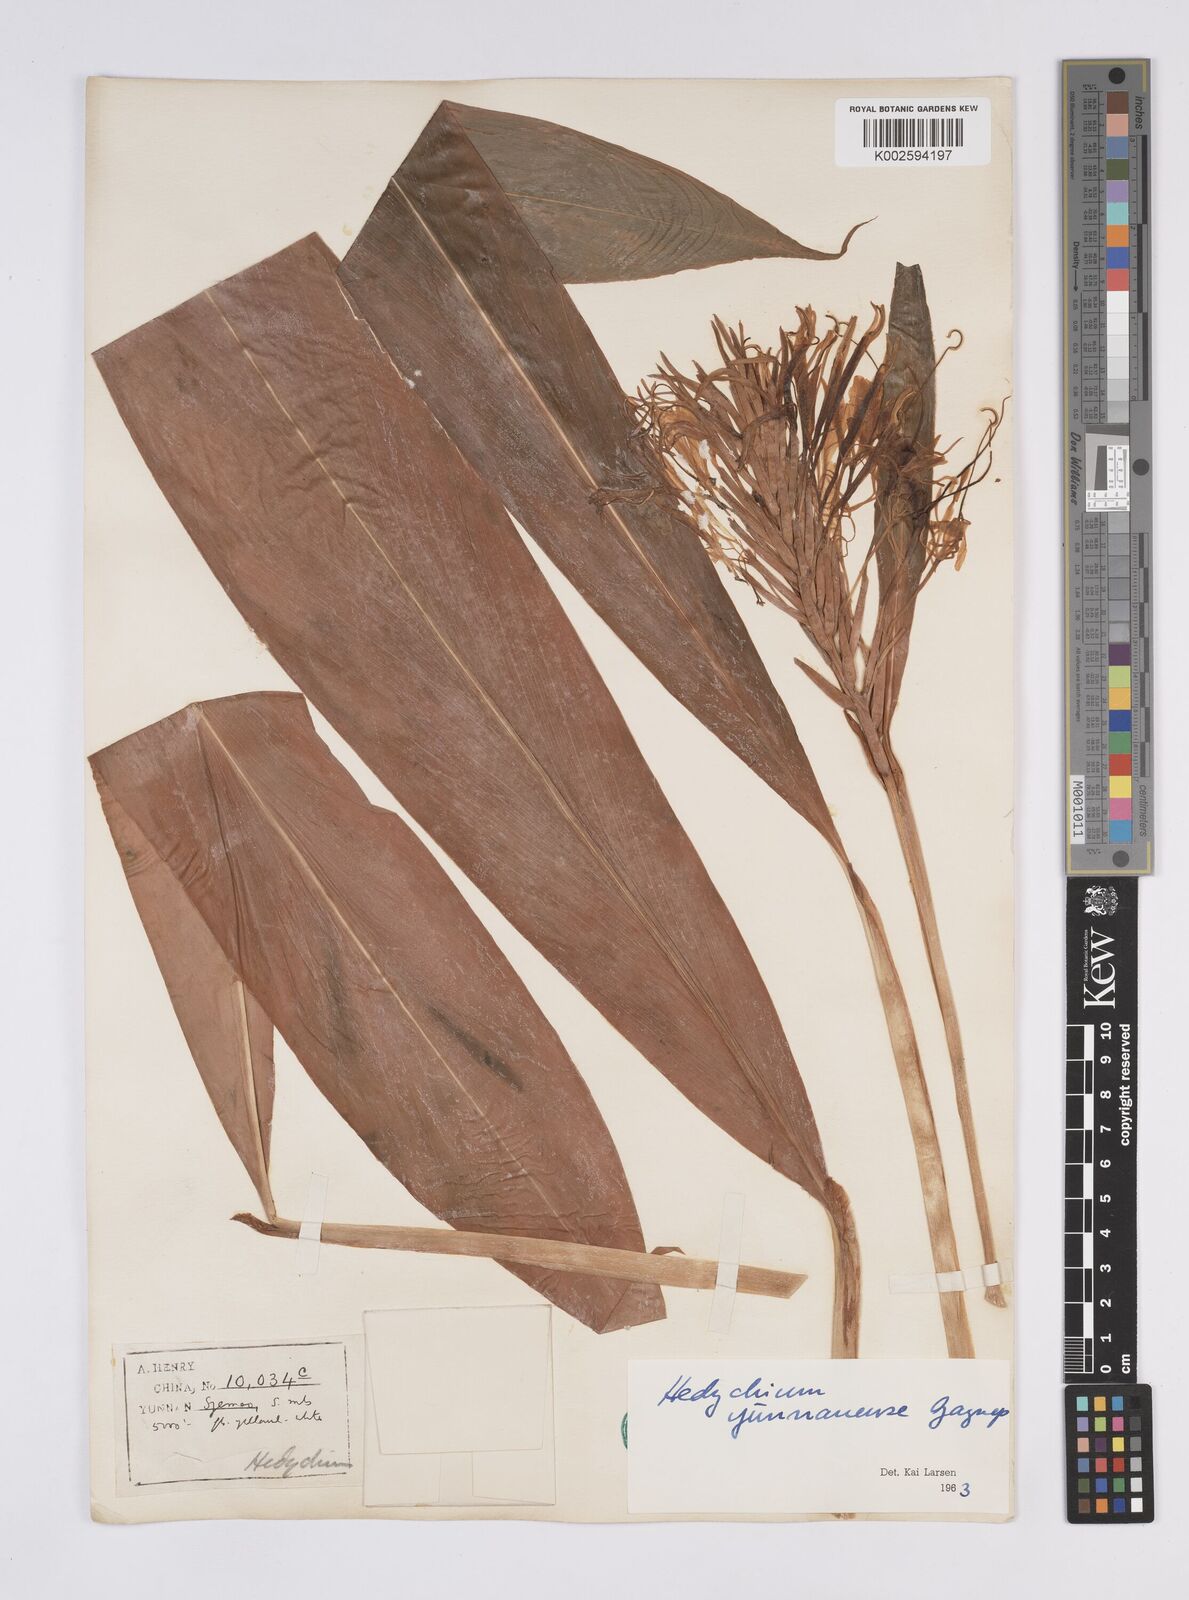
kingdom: Plantae
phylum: Tracheophyta
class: Liliopsida
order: Zingiberales
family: Zingiberaceae
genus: Hedychium
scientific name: Hedychium yunnanense
